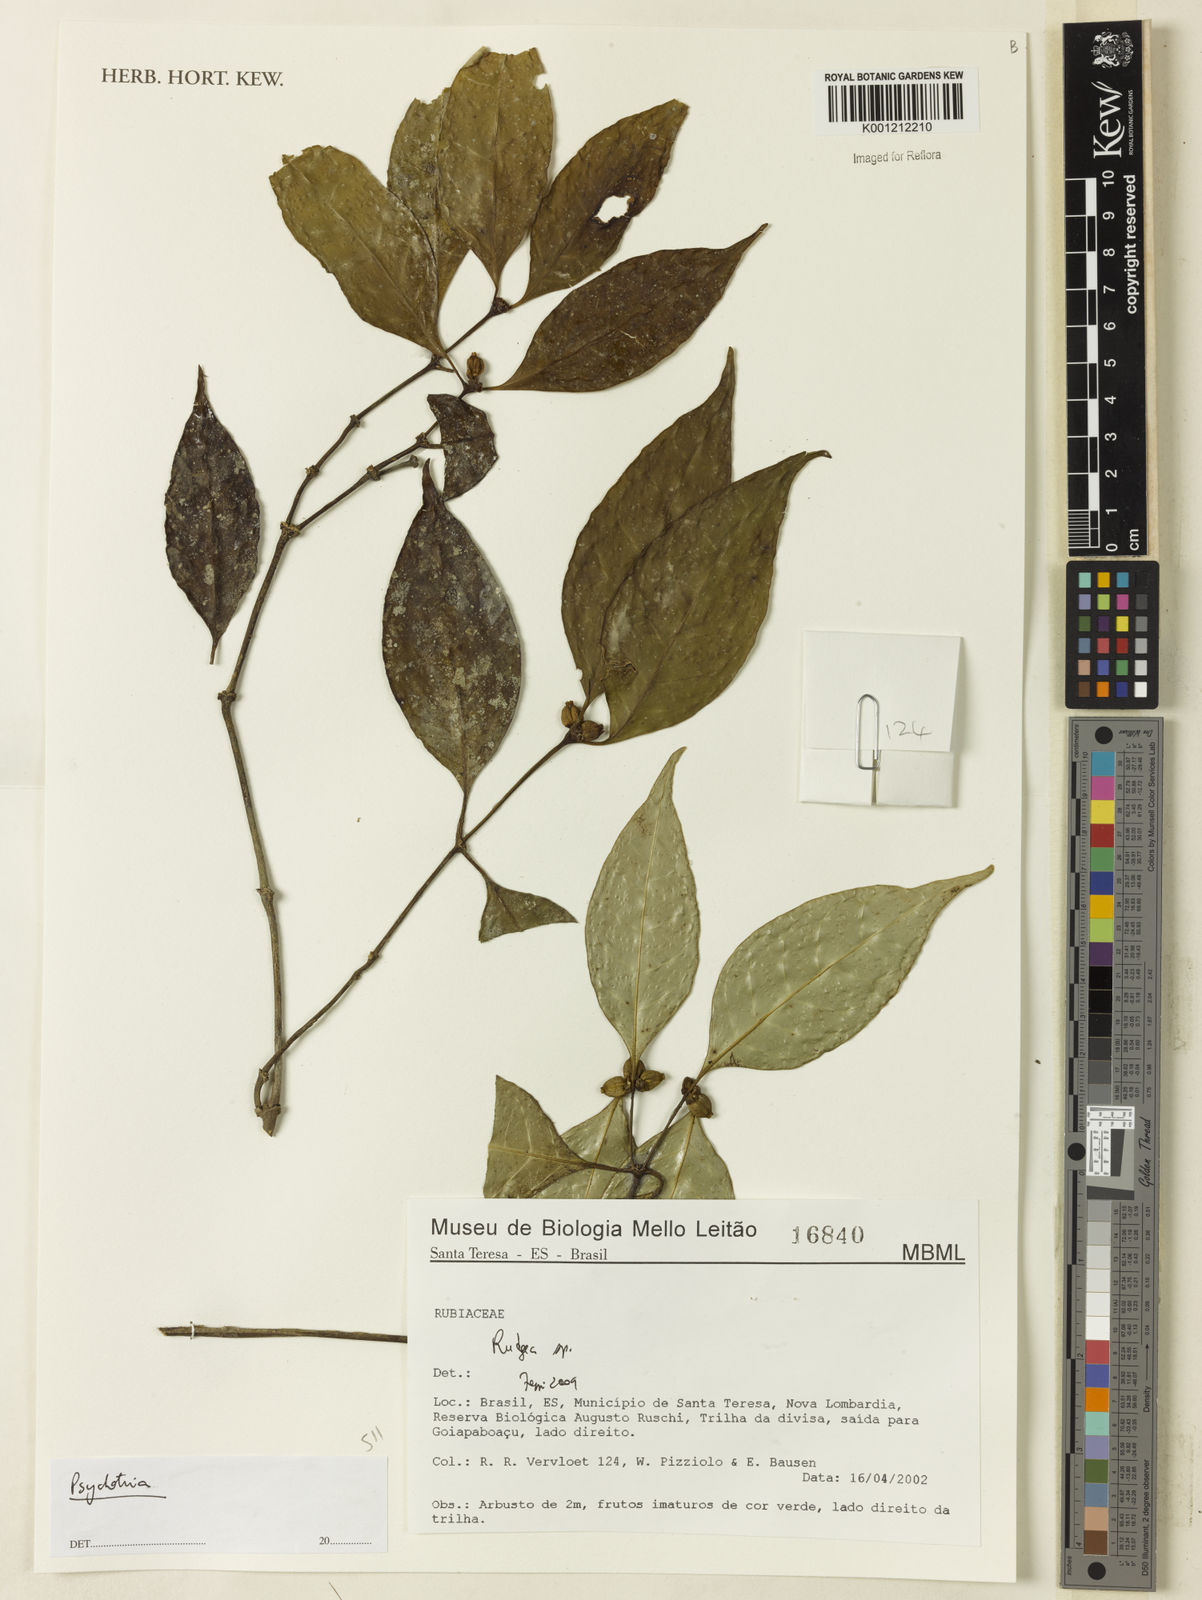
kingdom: Plantae
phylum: Tracheophyta
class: Magnoliopsida
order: Gentianales
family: Rubiaceae
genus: Psychotria
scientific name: Psychotria
